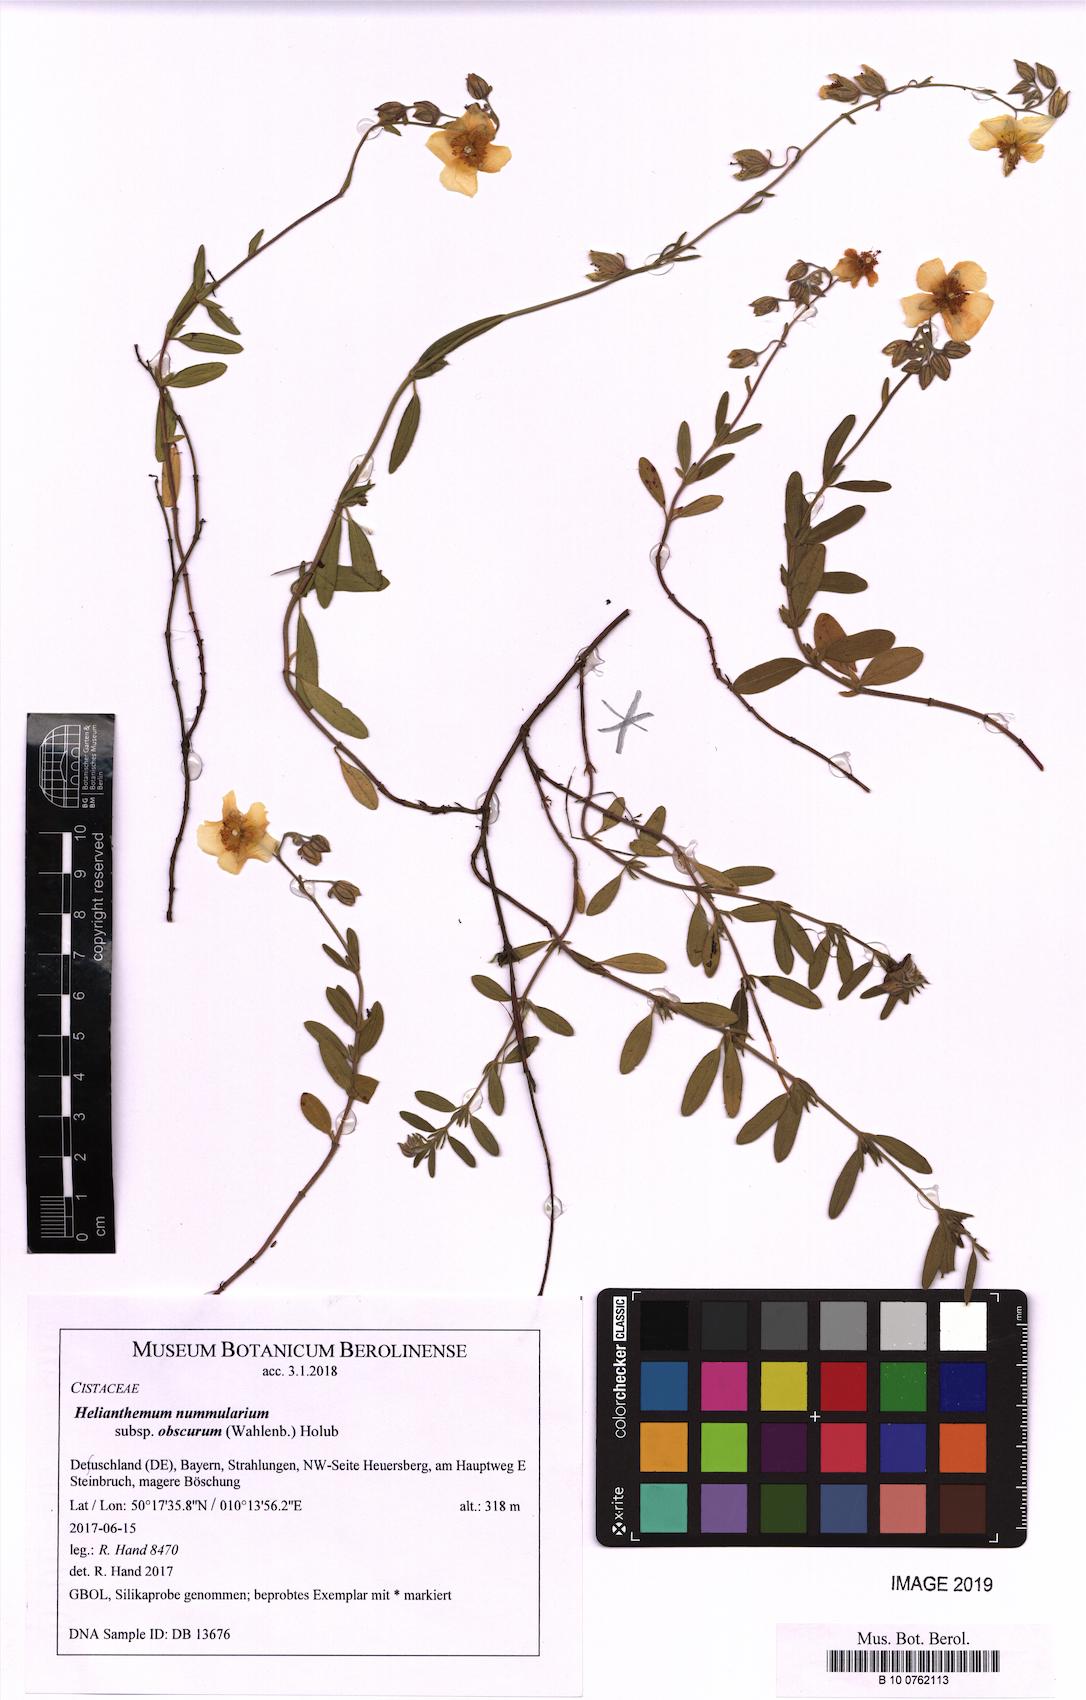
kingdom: Plantae
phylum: Tracheophyta
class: Magnoliopsida
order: Malvales
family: Cistaceae
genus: Helianthemum
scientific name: Helianthemum nummularium
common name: Common rock-rose
